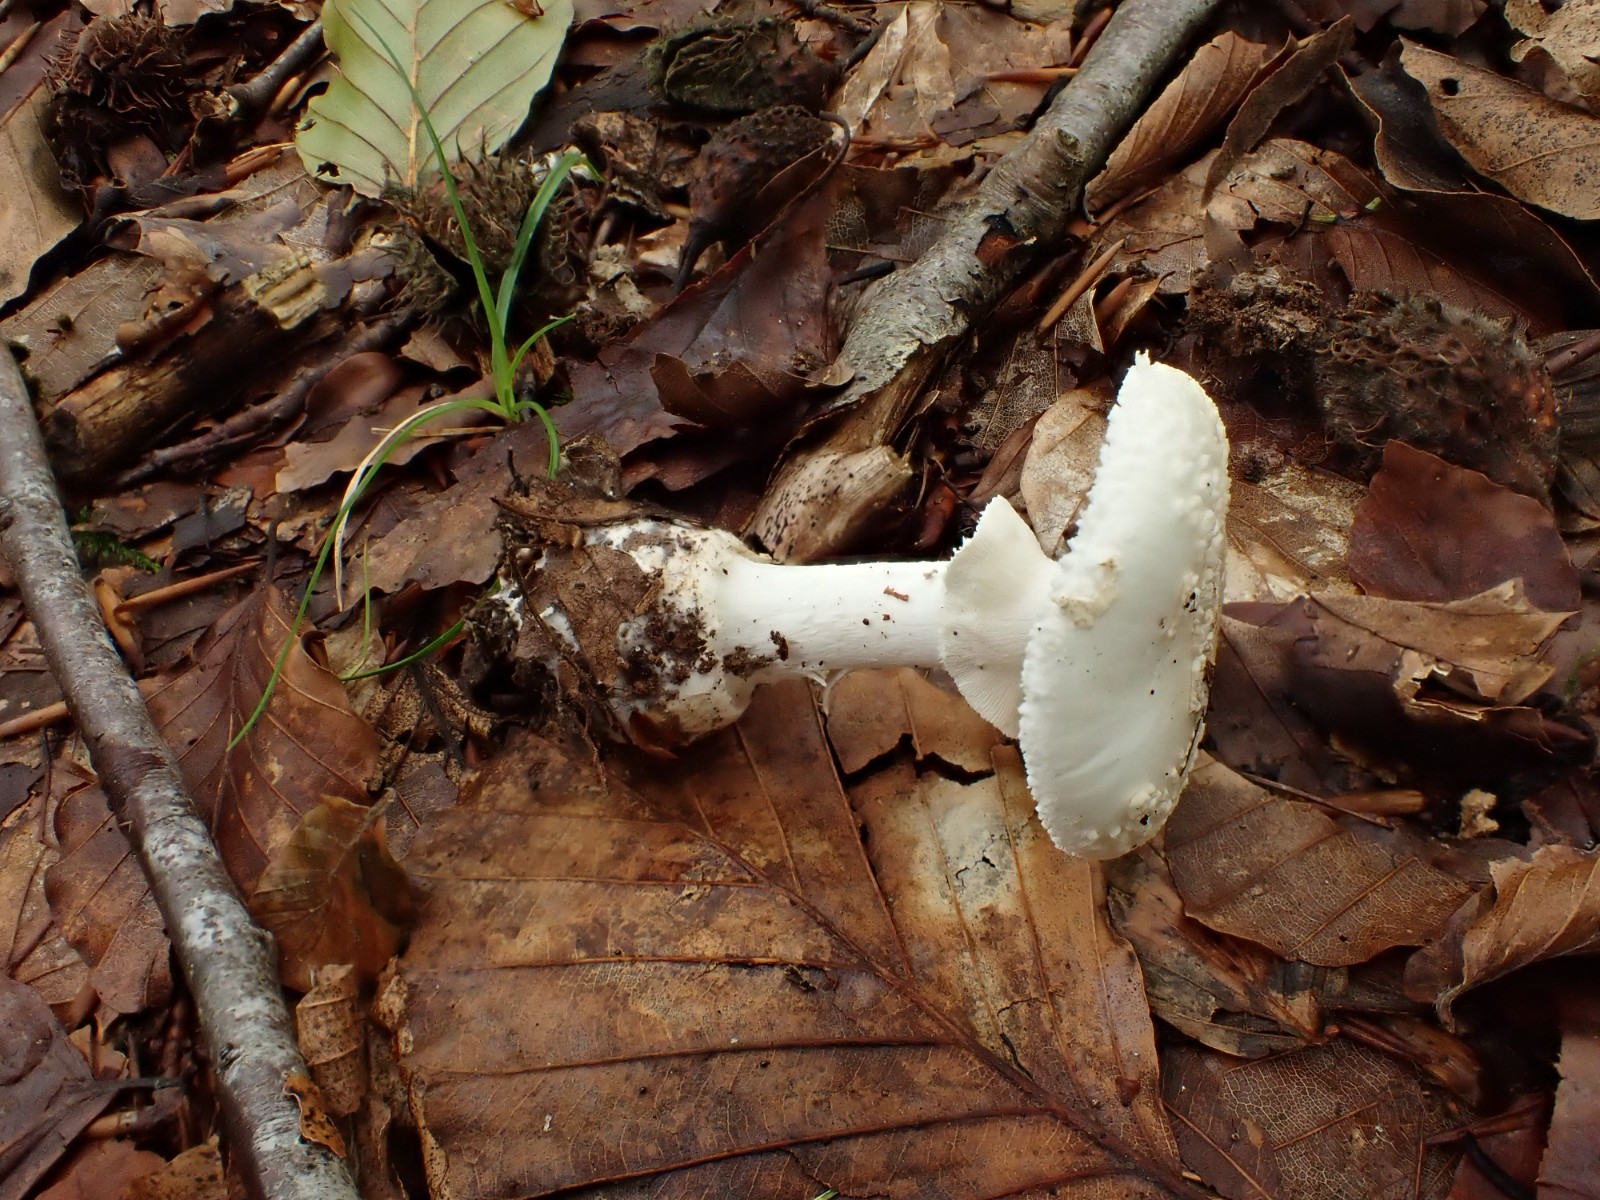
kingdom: Fungi
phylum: Basidiomycota
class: Agaricomycetes
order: Agaricales
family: Amanitaceae
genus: Amanita
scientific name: Amanita citrina
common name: kugleknoldet fluesvamp
